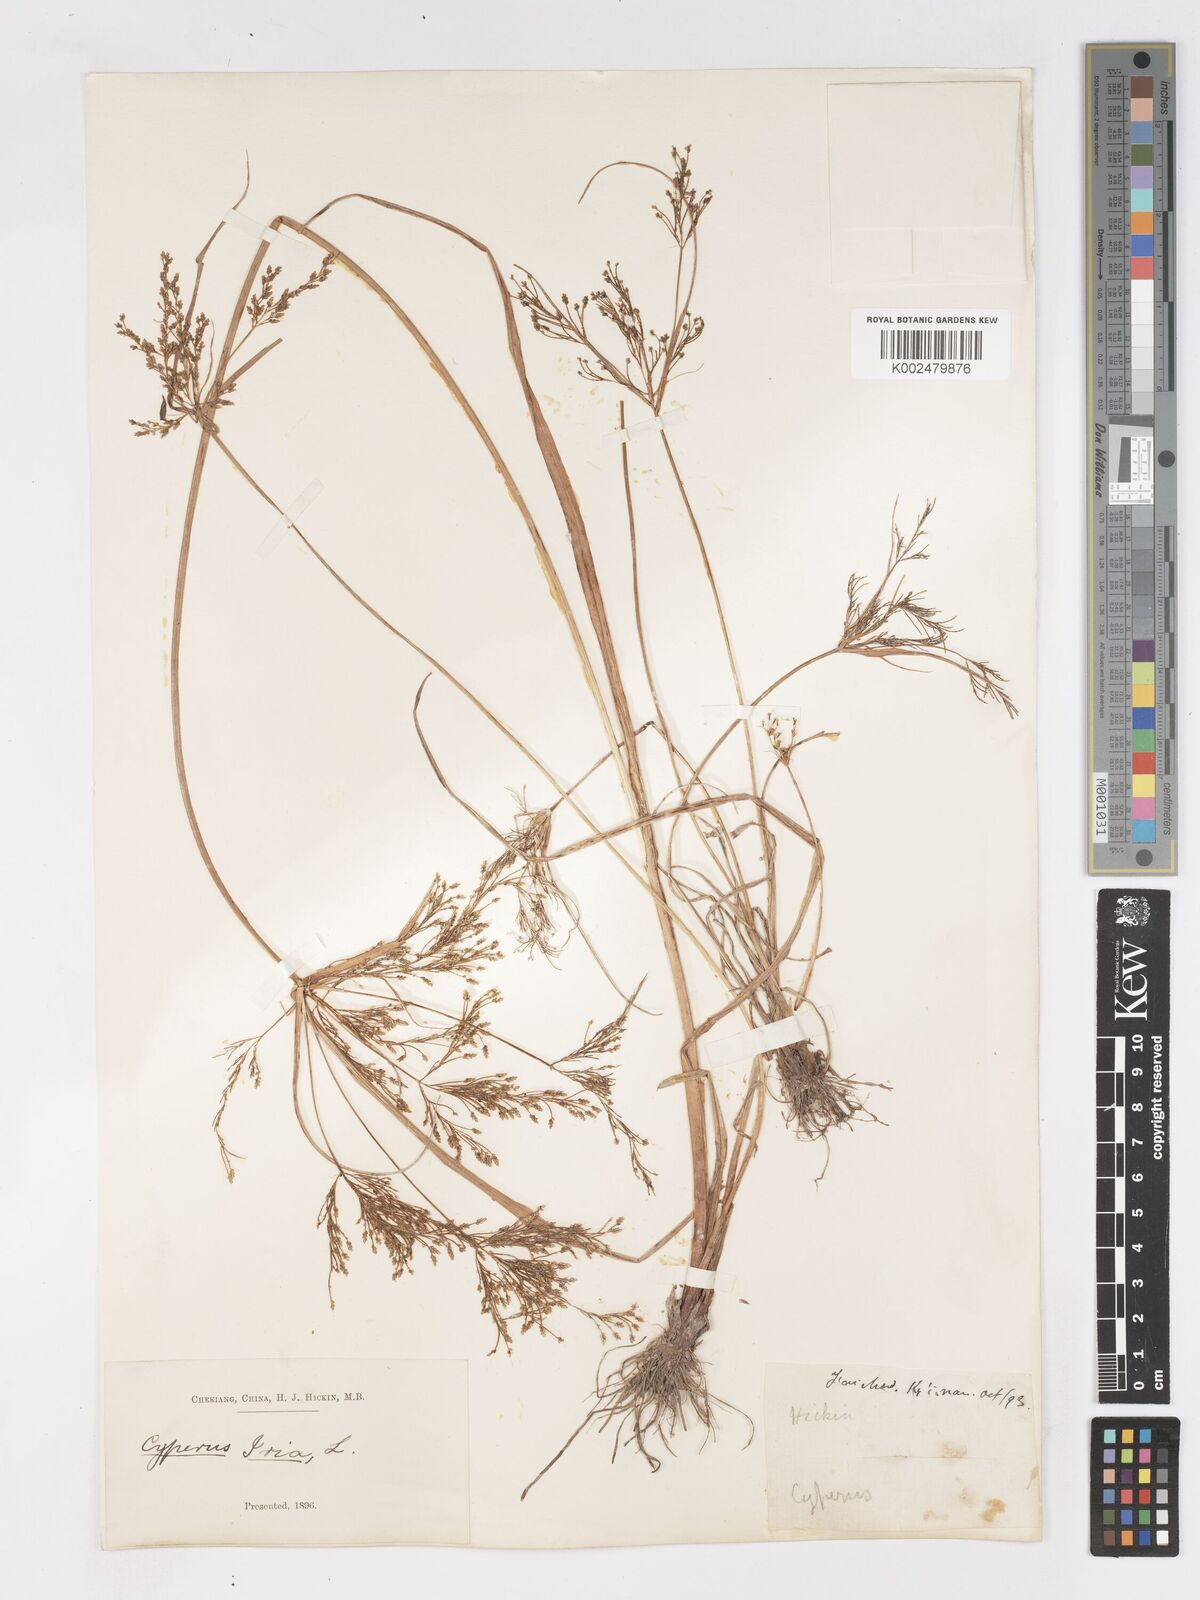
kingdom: Plantae
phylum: Tracheophyta
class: Liliopsida
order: Poales
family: Cyperaceae
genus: Cyperus
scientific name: Cyperus iria
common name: Ricefield flatsedge
